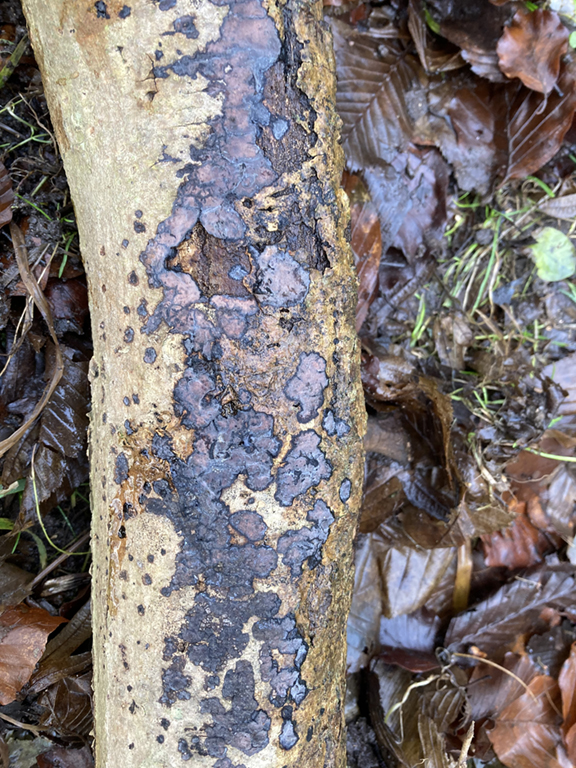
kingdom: Fungi
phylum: Basidiomycota
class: Agaricomycetes
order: Russulales
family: Peniophoraceae
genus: Peniophora
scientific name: Peniophora limitata
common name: mørkrandet voksskind
